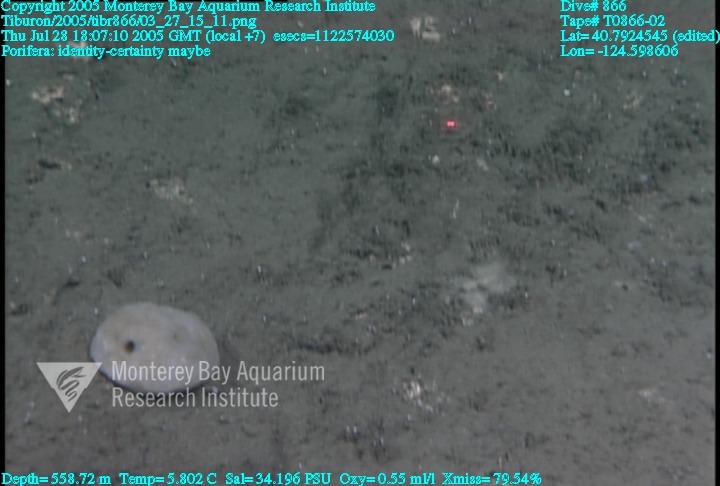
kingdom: Animalia
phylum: Porifera
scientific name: Porifera
